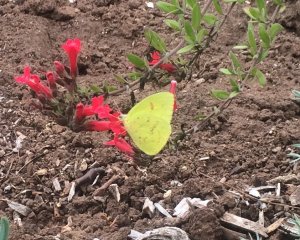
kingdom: Animalia
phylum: Arthropoda
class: Insecta
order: Lepidoptera
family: Pieridae
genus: Phoebis
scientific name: Phoebis sennae
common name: Cloudless Sulphur
